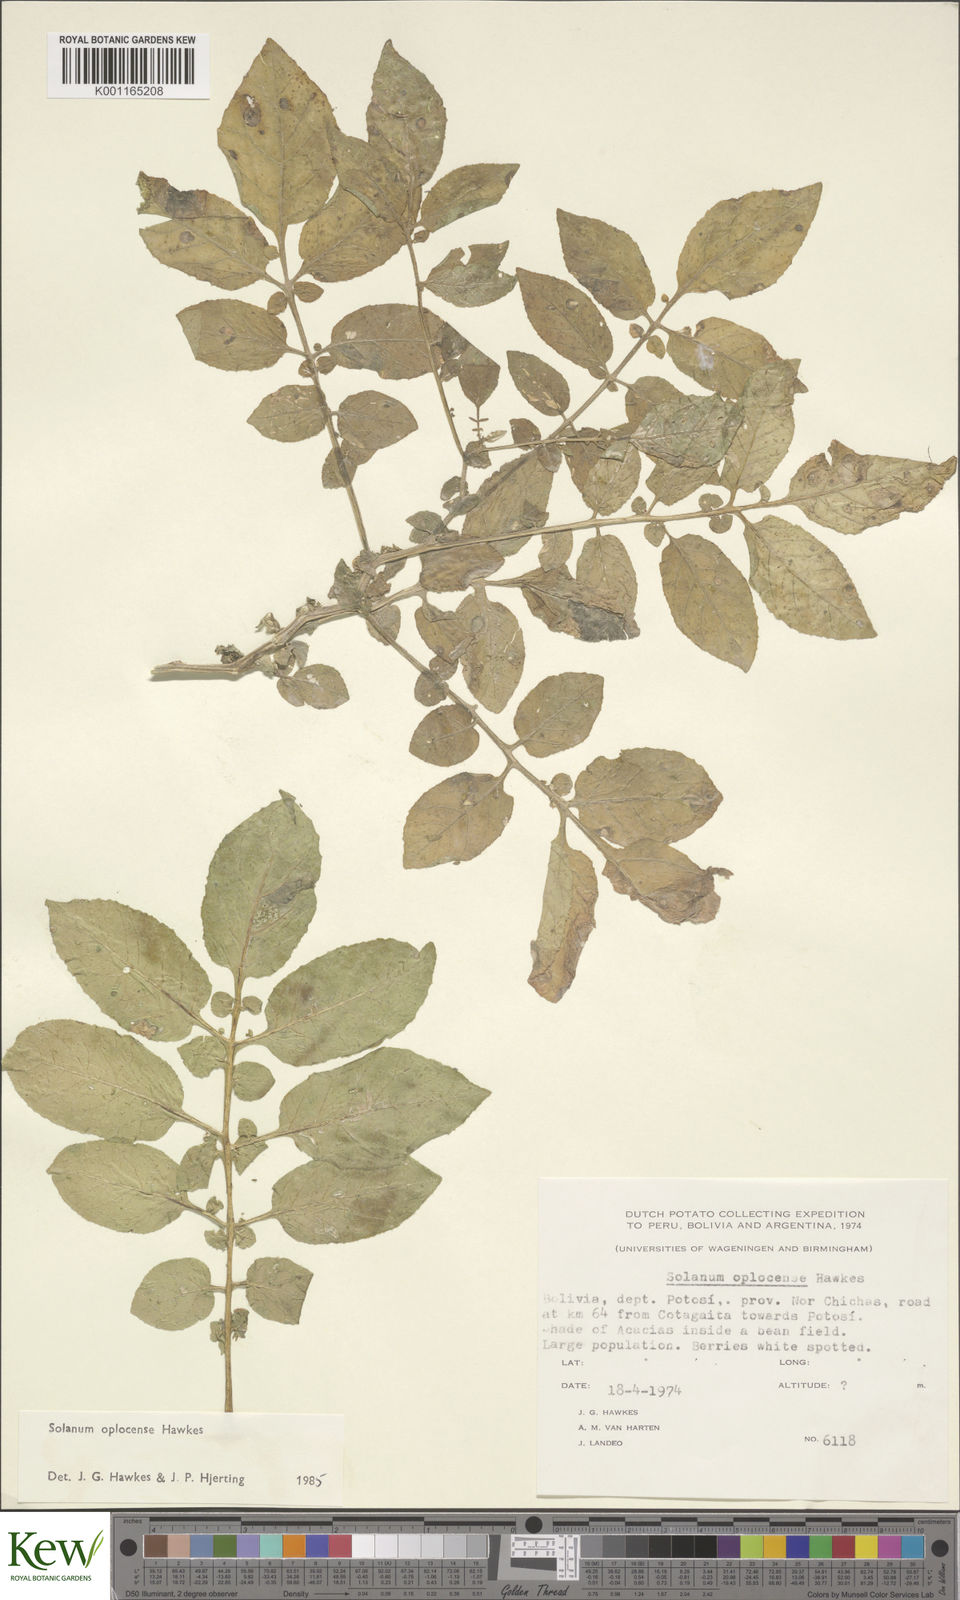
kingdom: Plantae
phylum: Tracheophyta
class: Magnoliopsida
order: Solanales
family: Solanaceae
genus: Solanum
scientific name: Solanum brevicaule
